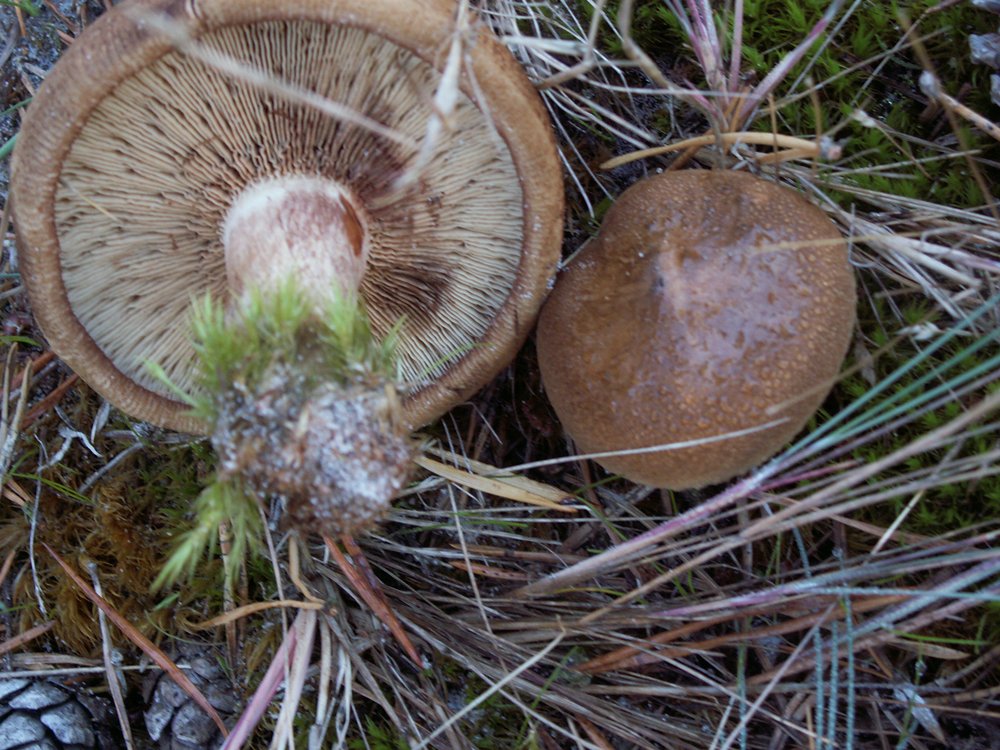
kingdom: Fungi
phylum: Basidiomycota
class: Agaricomycetes
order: Boletales
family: Paxillaceae
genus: Paxillus
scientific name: Paxillus involutus
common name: almindelig netbladhat
